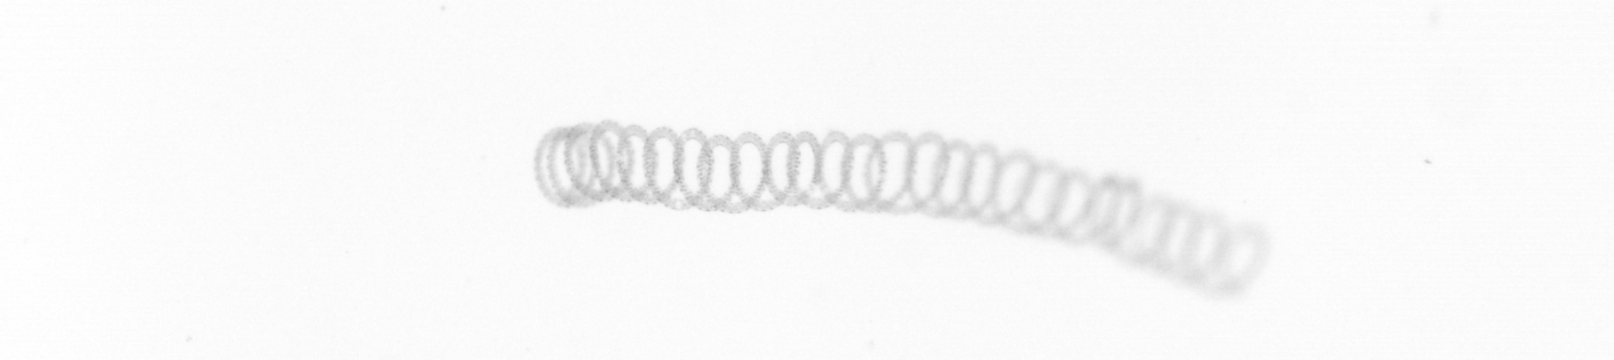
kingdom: Chromista
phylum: Ochrophyta
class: Bacillariophyceae
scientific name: Bacillariophyceae
